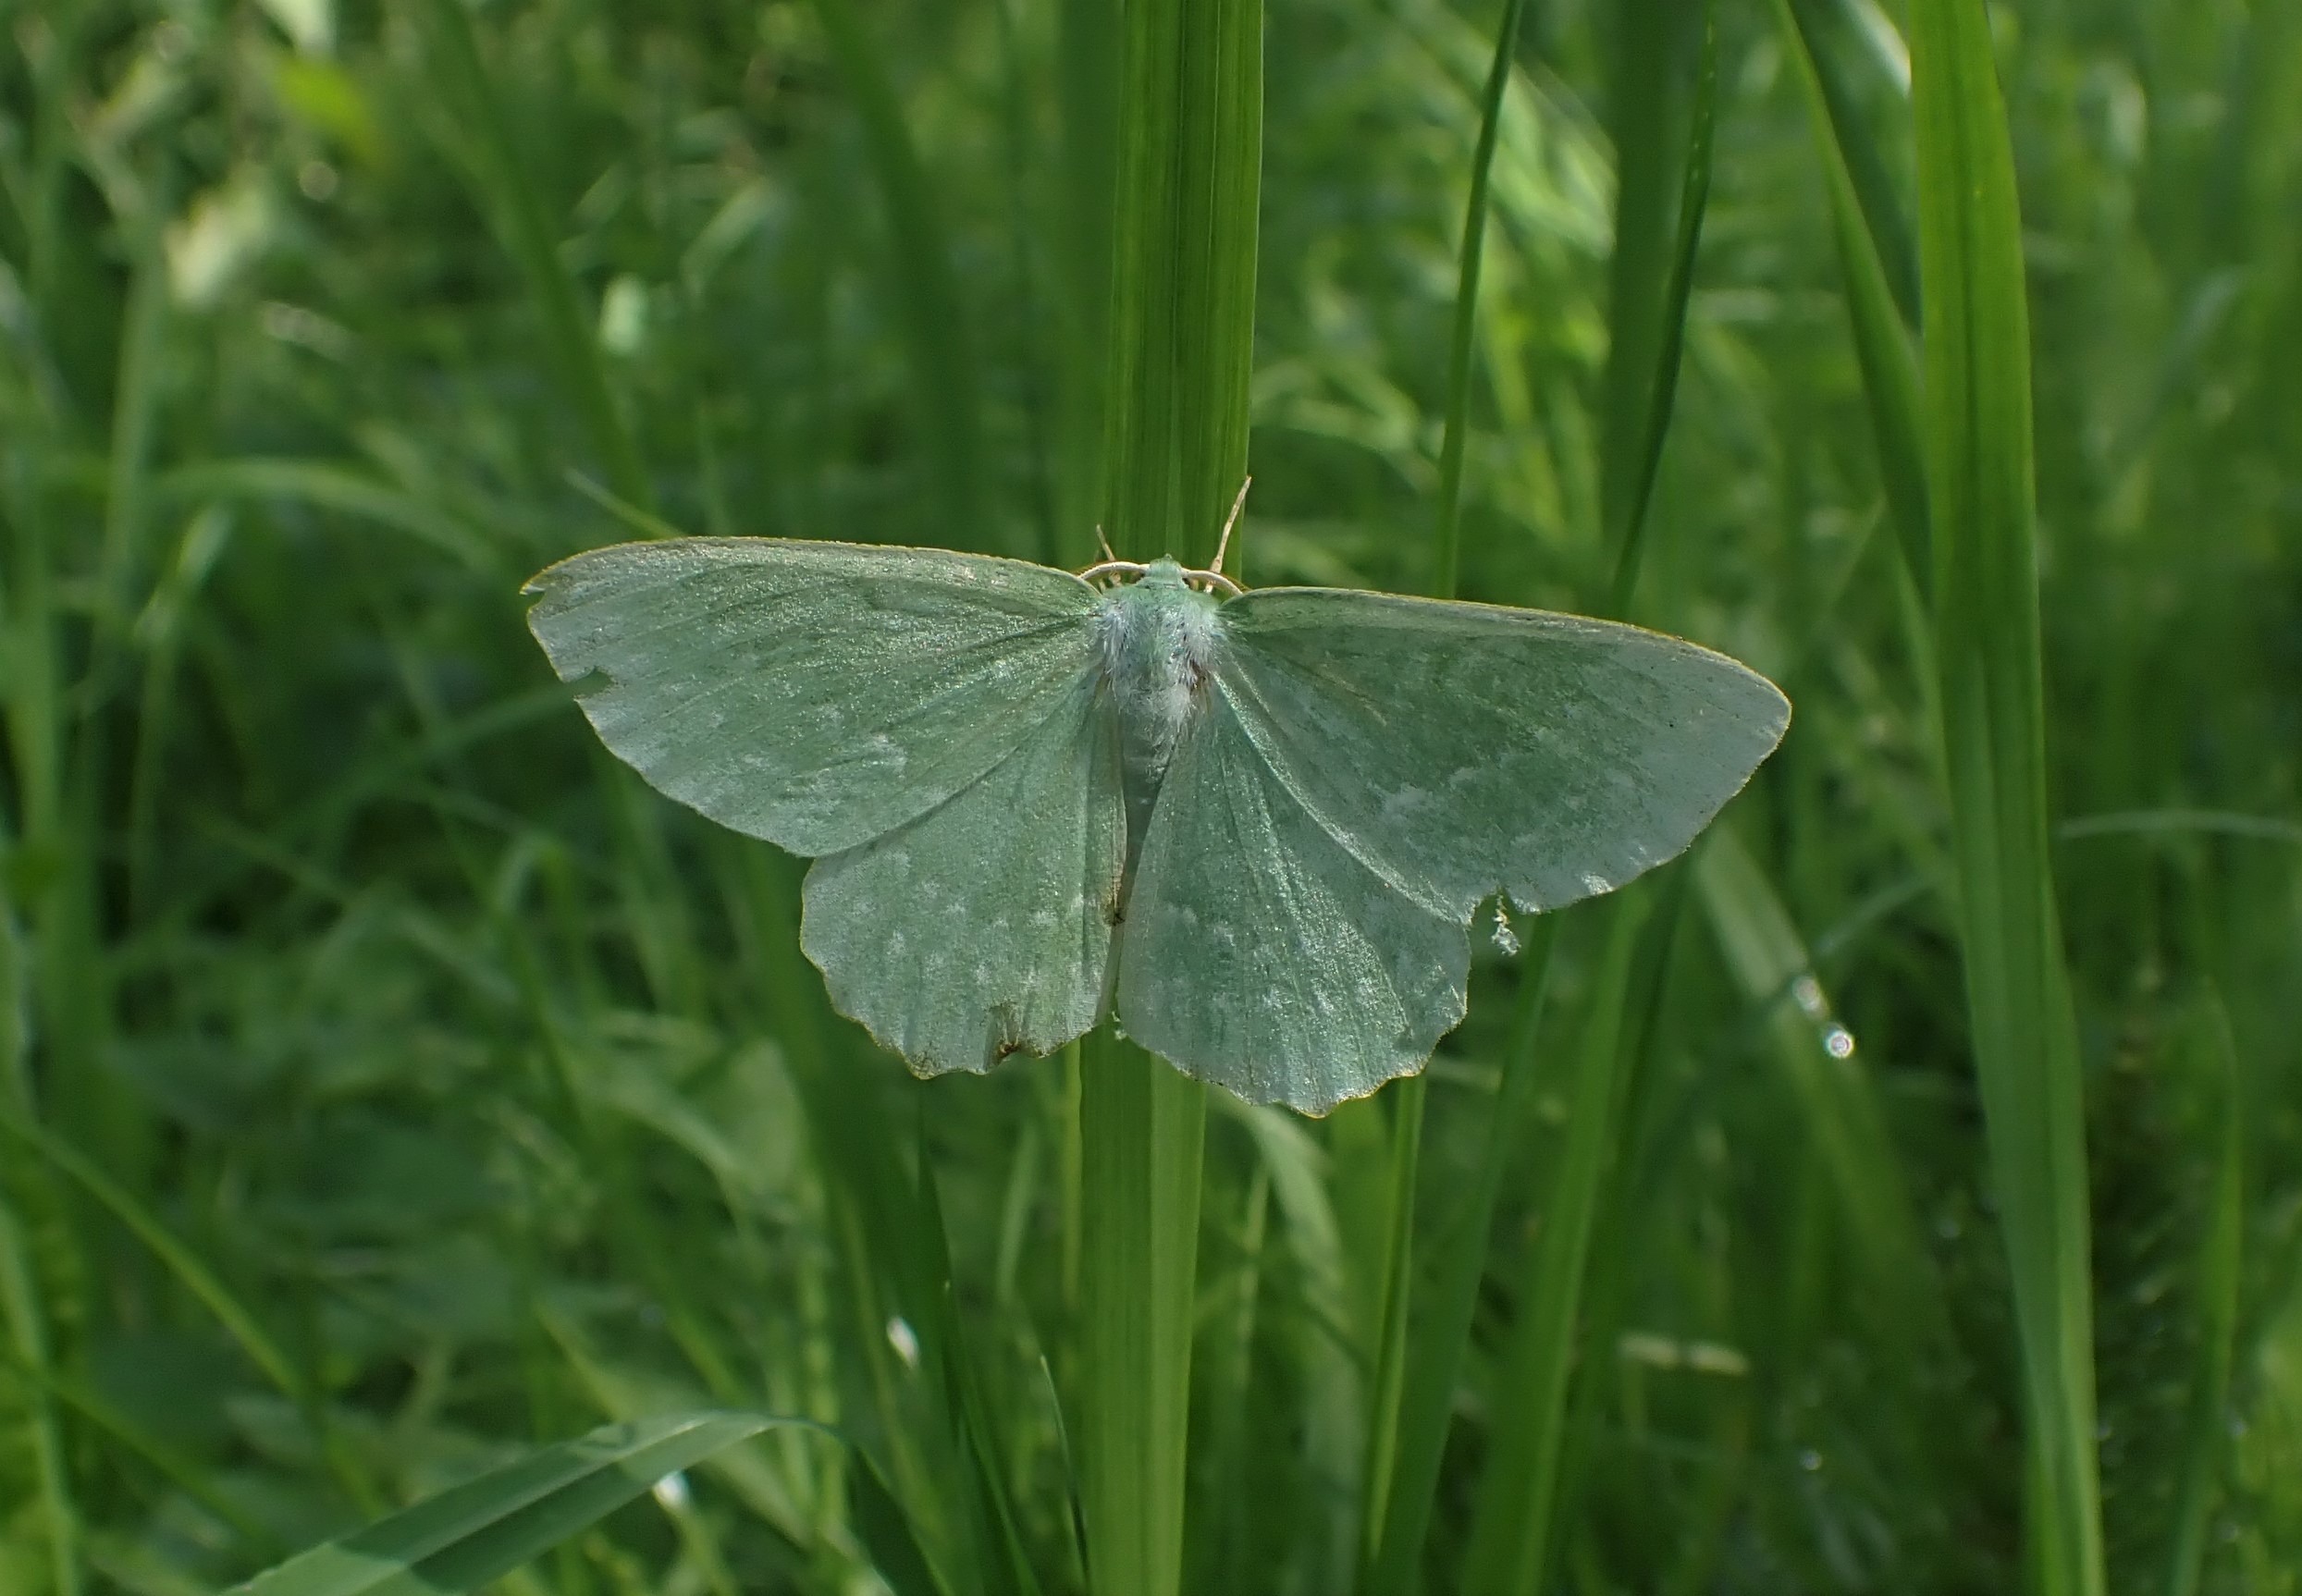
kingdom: Animalia
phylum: Arthropoda
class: Insecta
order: Lepidoptera
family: Geometridae
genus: Geometra
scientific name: Geometra papilionaria
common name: Grøn birkemåler
